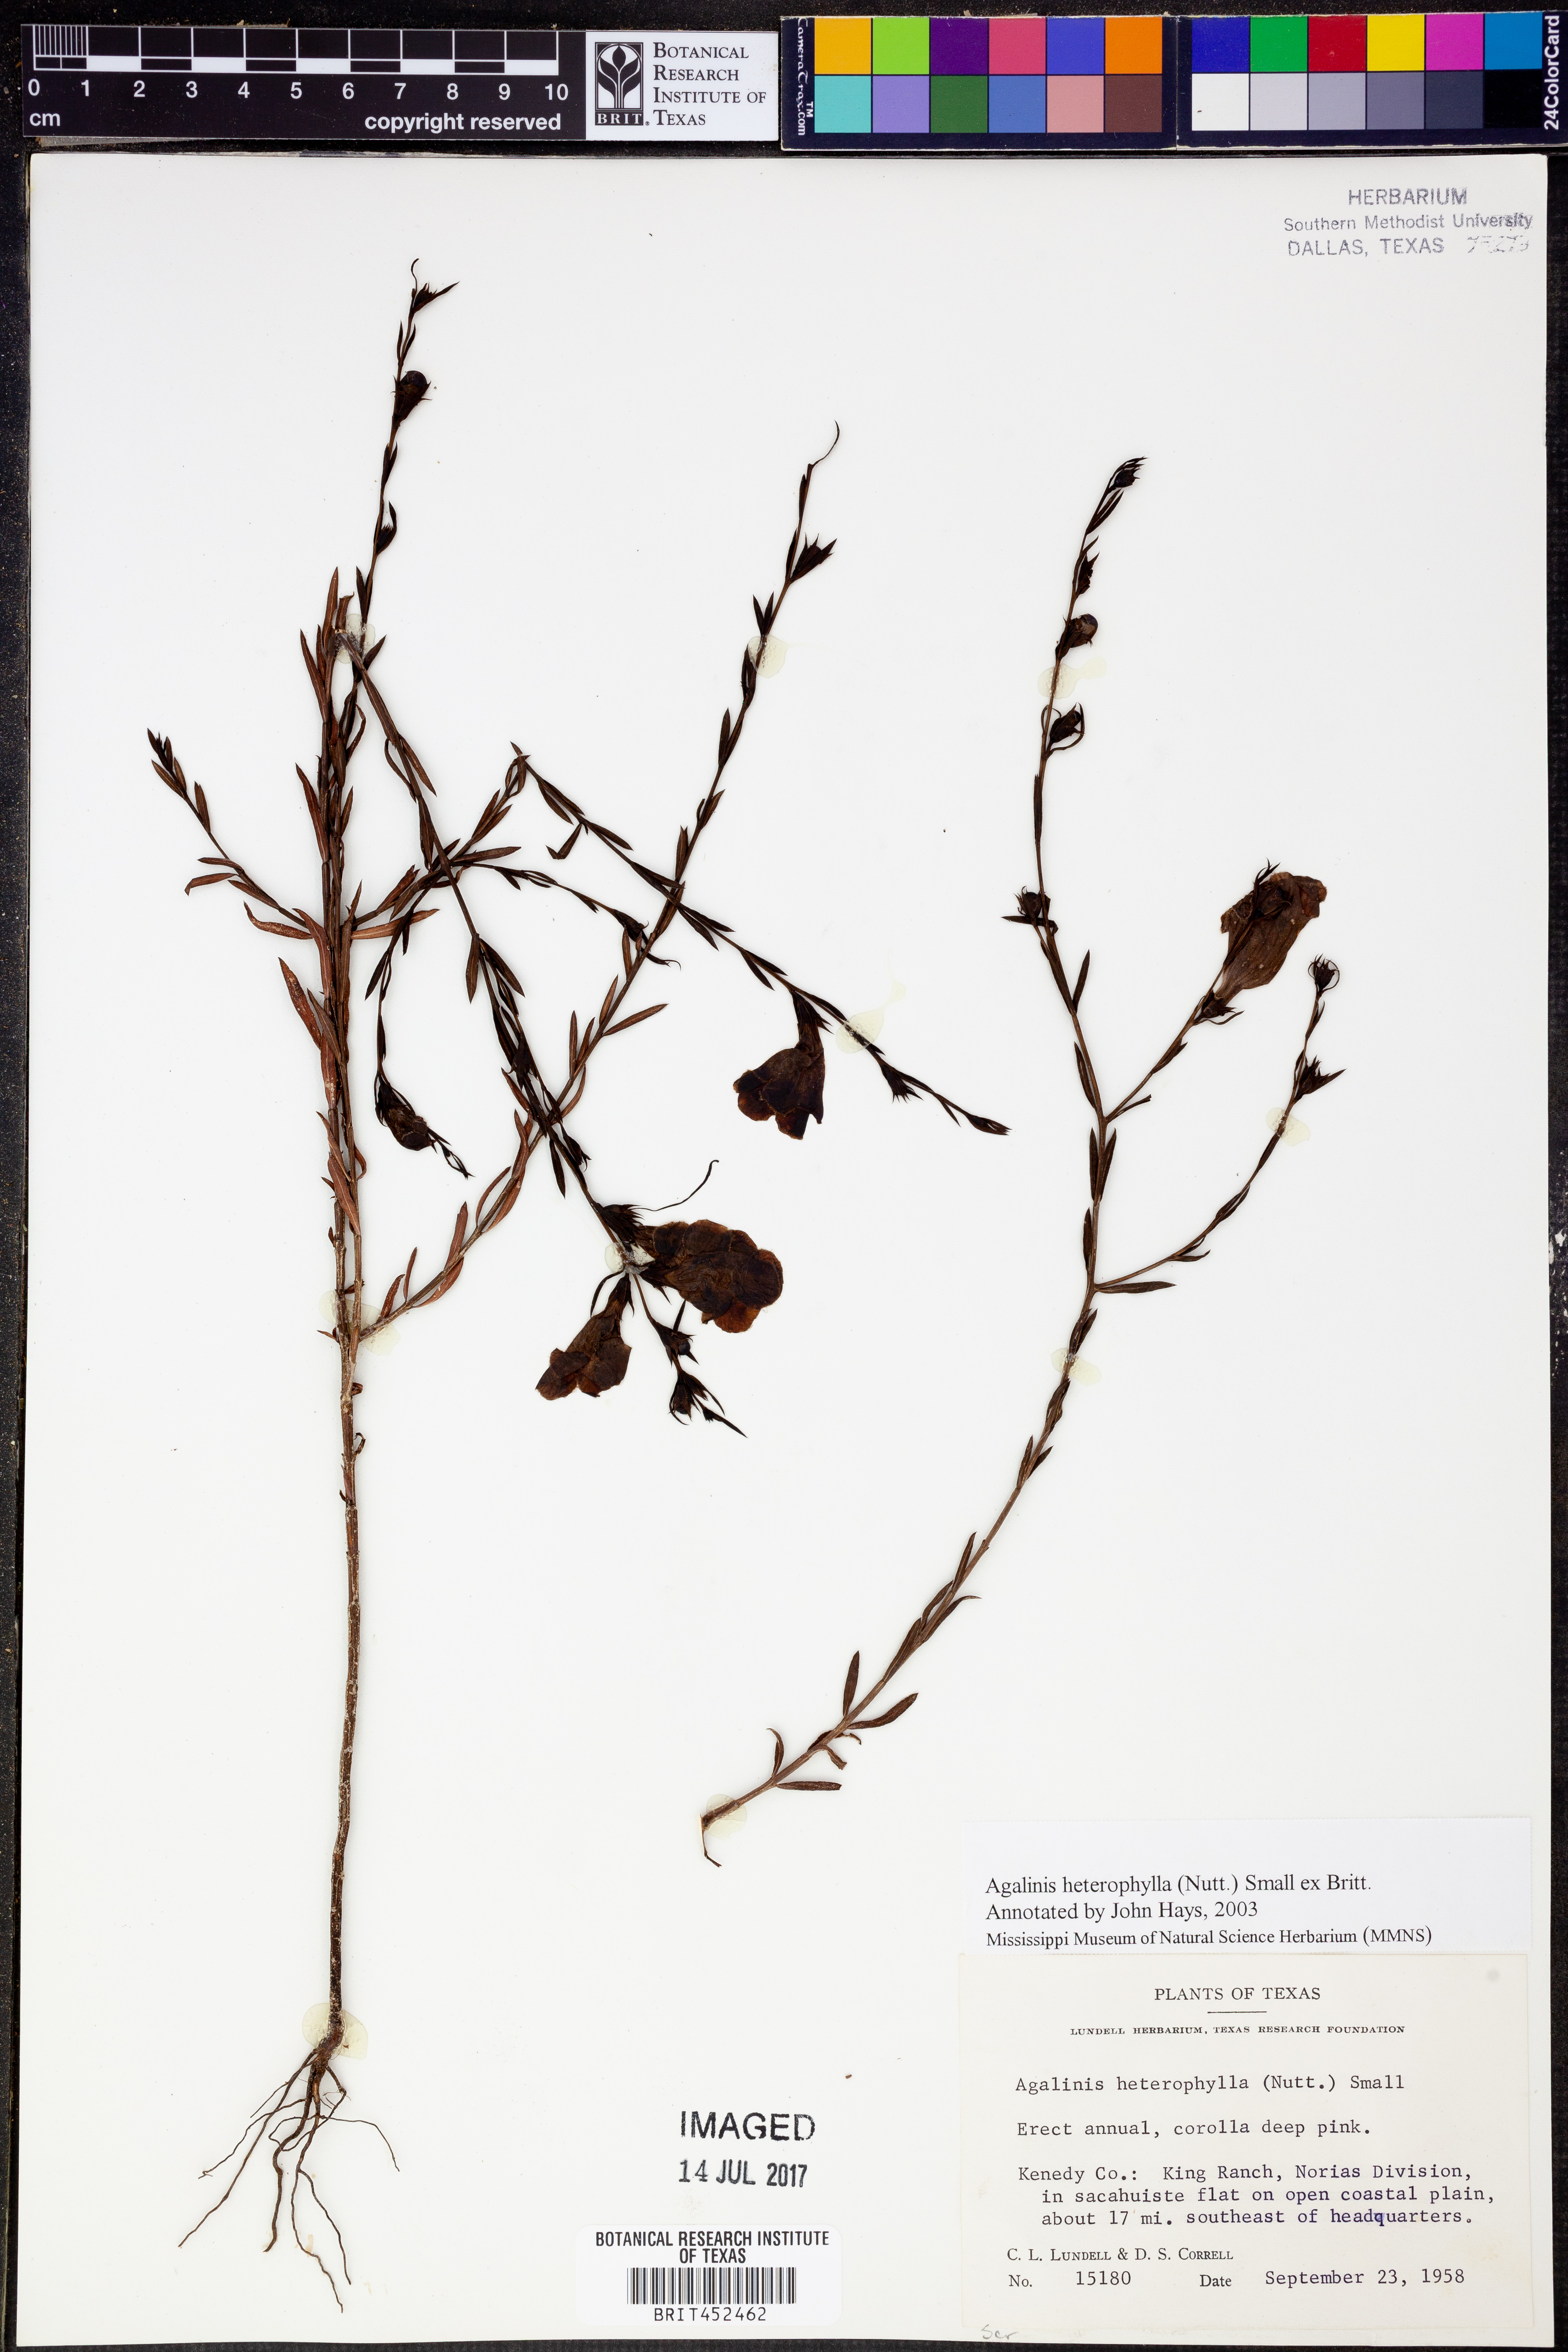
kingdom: Plantae
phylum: Tracheophyta
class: Magnoliopsida
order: Lamiales
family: Orobanchaceae
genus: Agalinis
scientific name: Agalinis heterophylla
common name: Prairie agalinis
